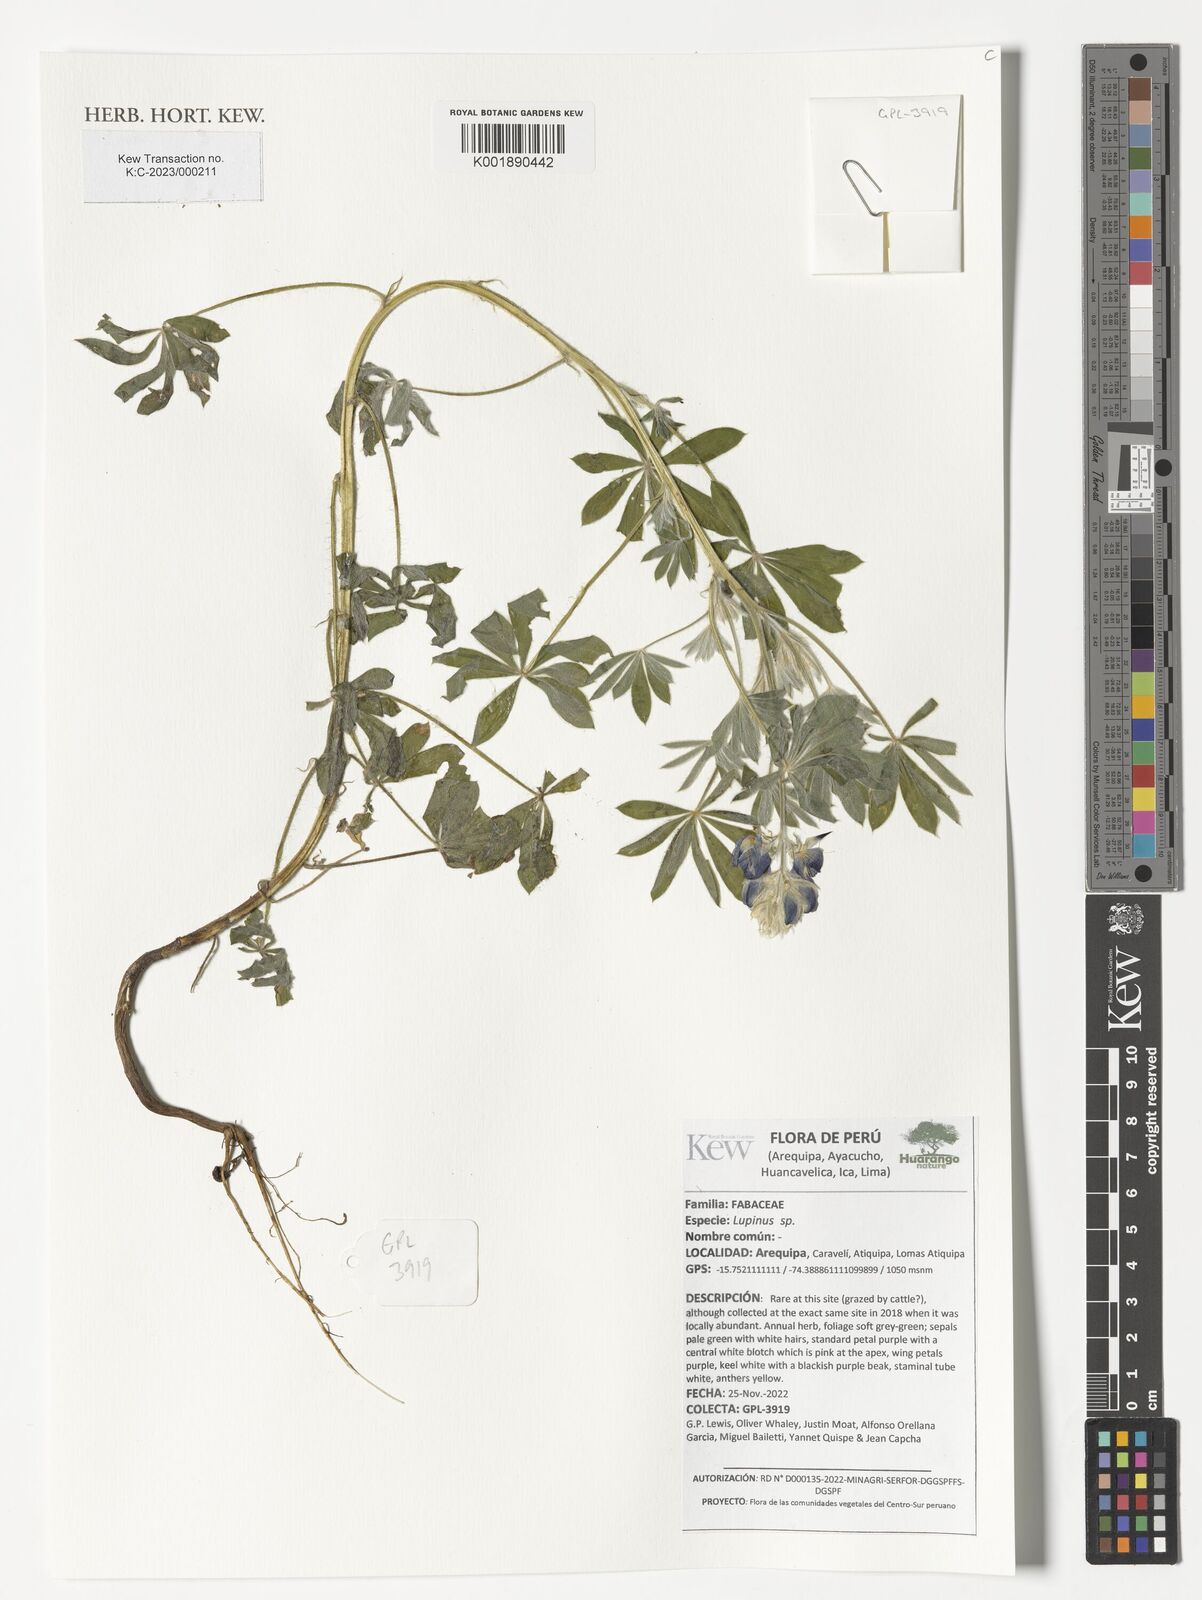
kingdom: Plantae
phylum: Tracheophyta
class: Magnoliopsida
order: Fabales
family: Fabaceae
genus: Lupinus
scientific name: Lupinus
